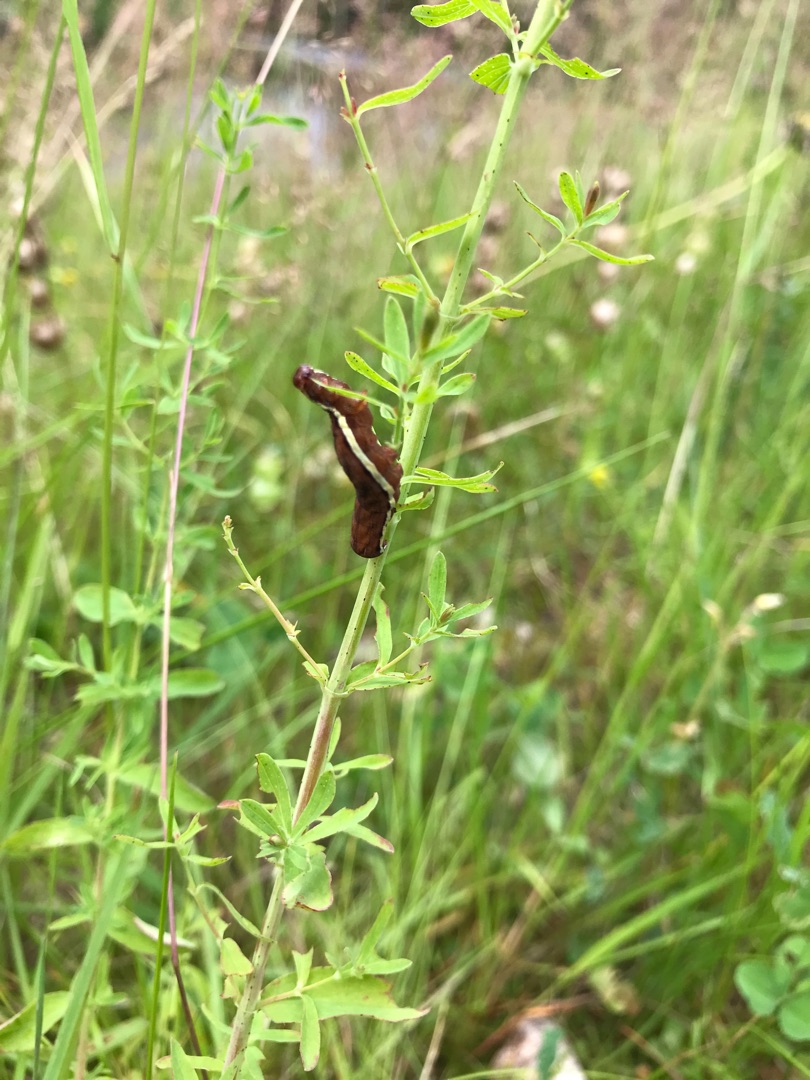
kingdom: Animalia
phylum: Arthropoda
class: Insecta
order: Lepidoptera
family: Noctuidae
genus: Actinotia
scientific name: Actinotia polyodon
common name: Lilla perikonugle
